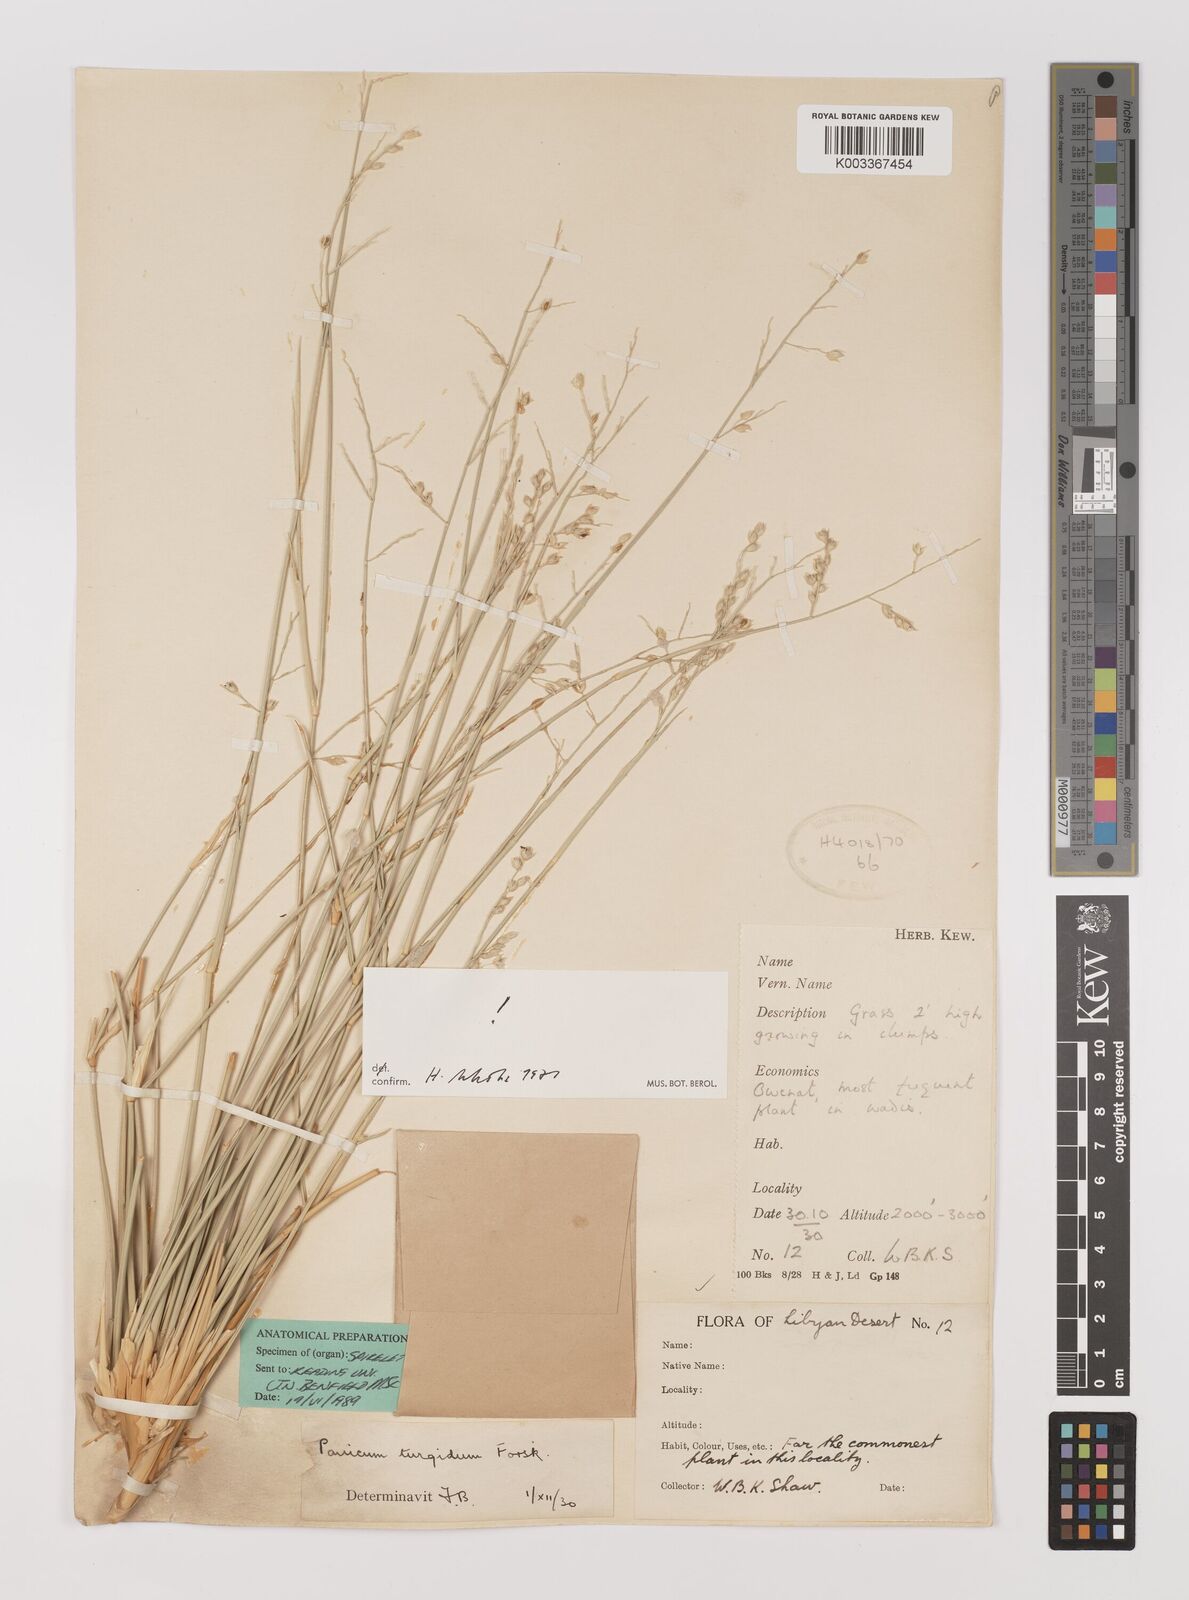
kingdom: Plantae
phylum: Tracheophyta
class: Liliopsida
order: Poales
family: Poaceae
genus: Panicum
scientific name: Panicum turgidum
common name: Desert grass
